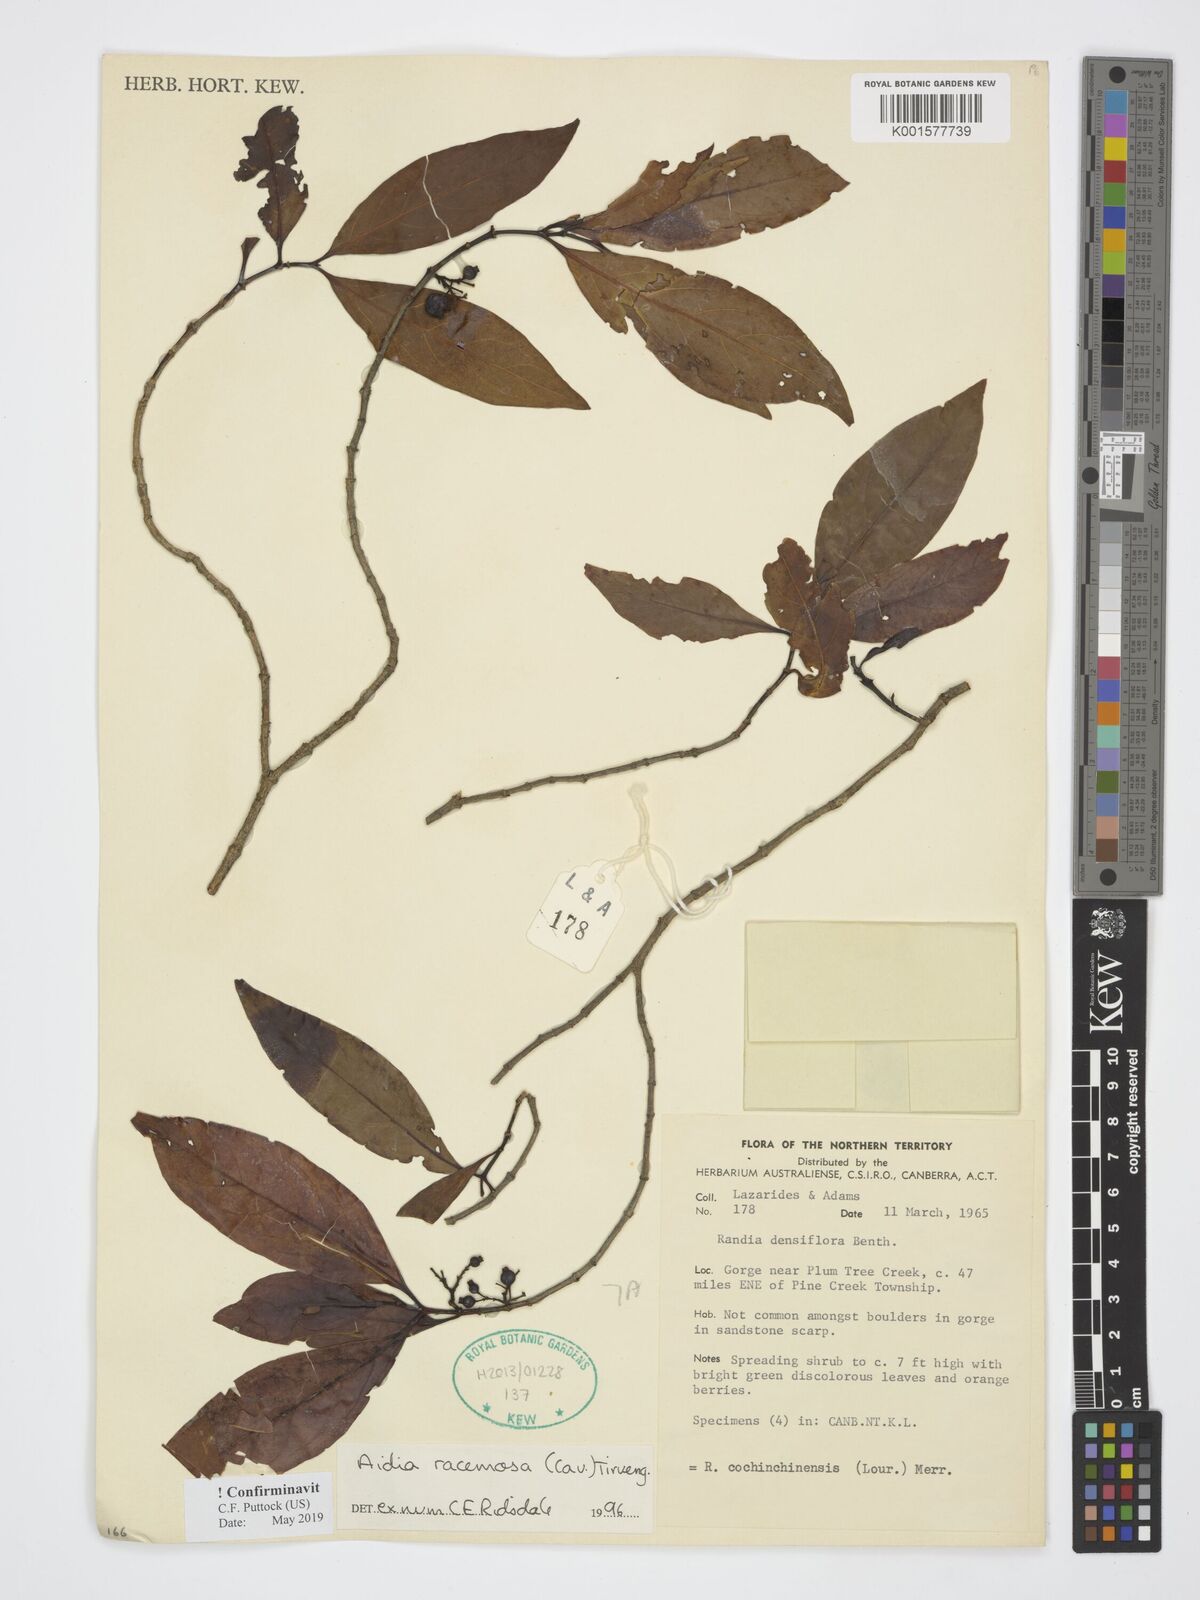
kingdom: Plantae
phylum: Tracheophyta
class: Magnoliopsida
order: Gentianales
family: Rubiaceae
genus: Aidia
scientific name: Aidia densiflora
